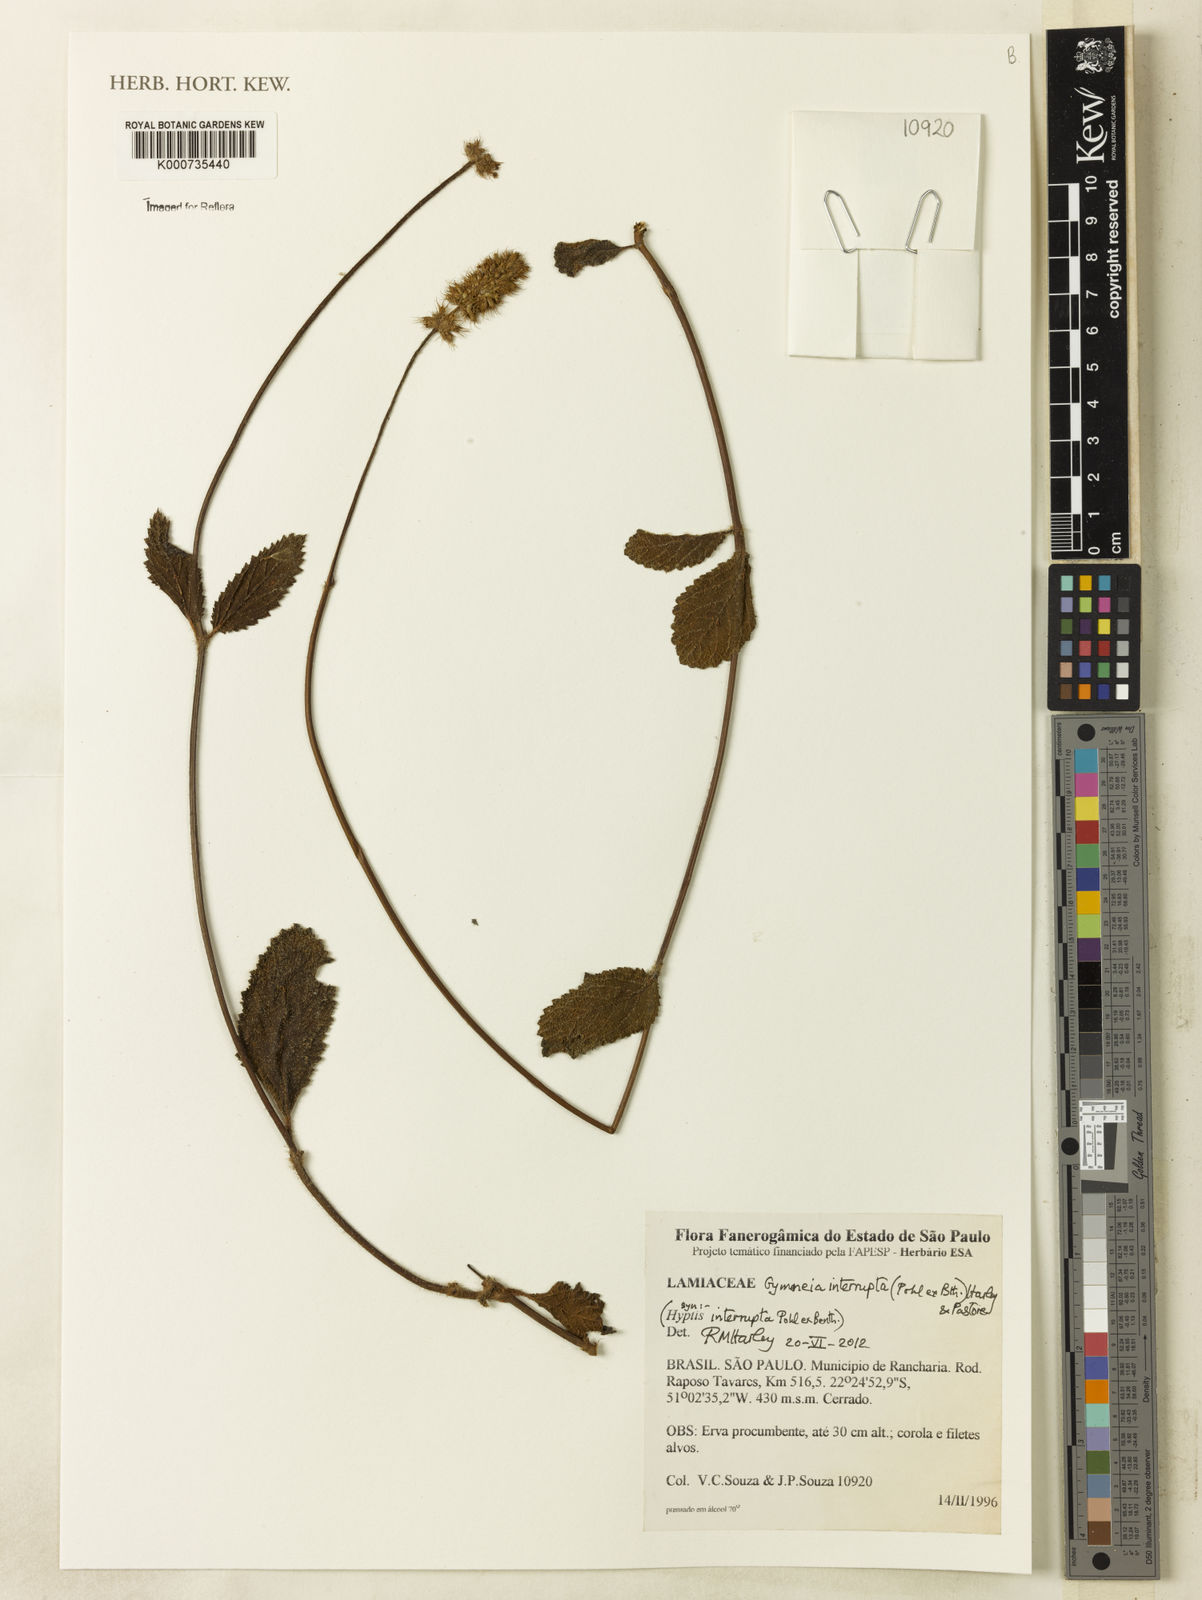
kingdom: Plantae
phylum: Tracheophyta
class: Magnoliopsida
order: Lamiales
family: Lamiaceae
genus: Gymneia
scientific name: Gymneia interrupta
